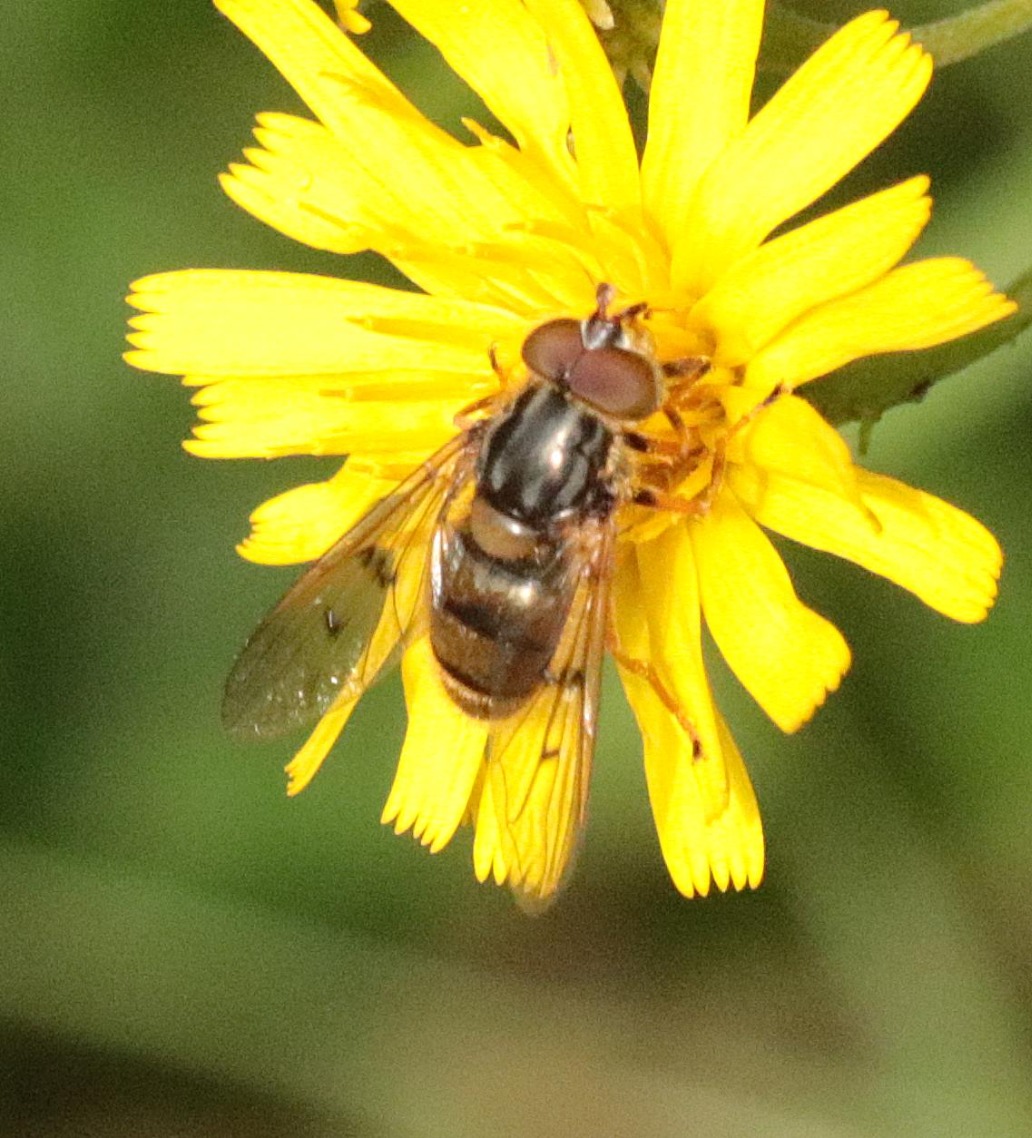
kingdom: Animalia
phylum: Arthropoda
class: Insecta
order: Diptera
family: Syrphidae
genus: Ferdinandea
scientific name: Ferdinandea cuprea
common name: Sorthornet guldsvirreflue
